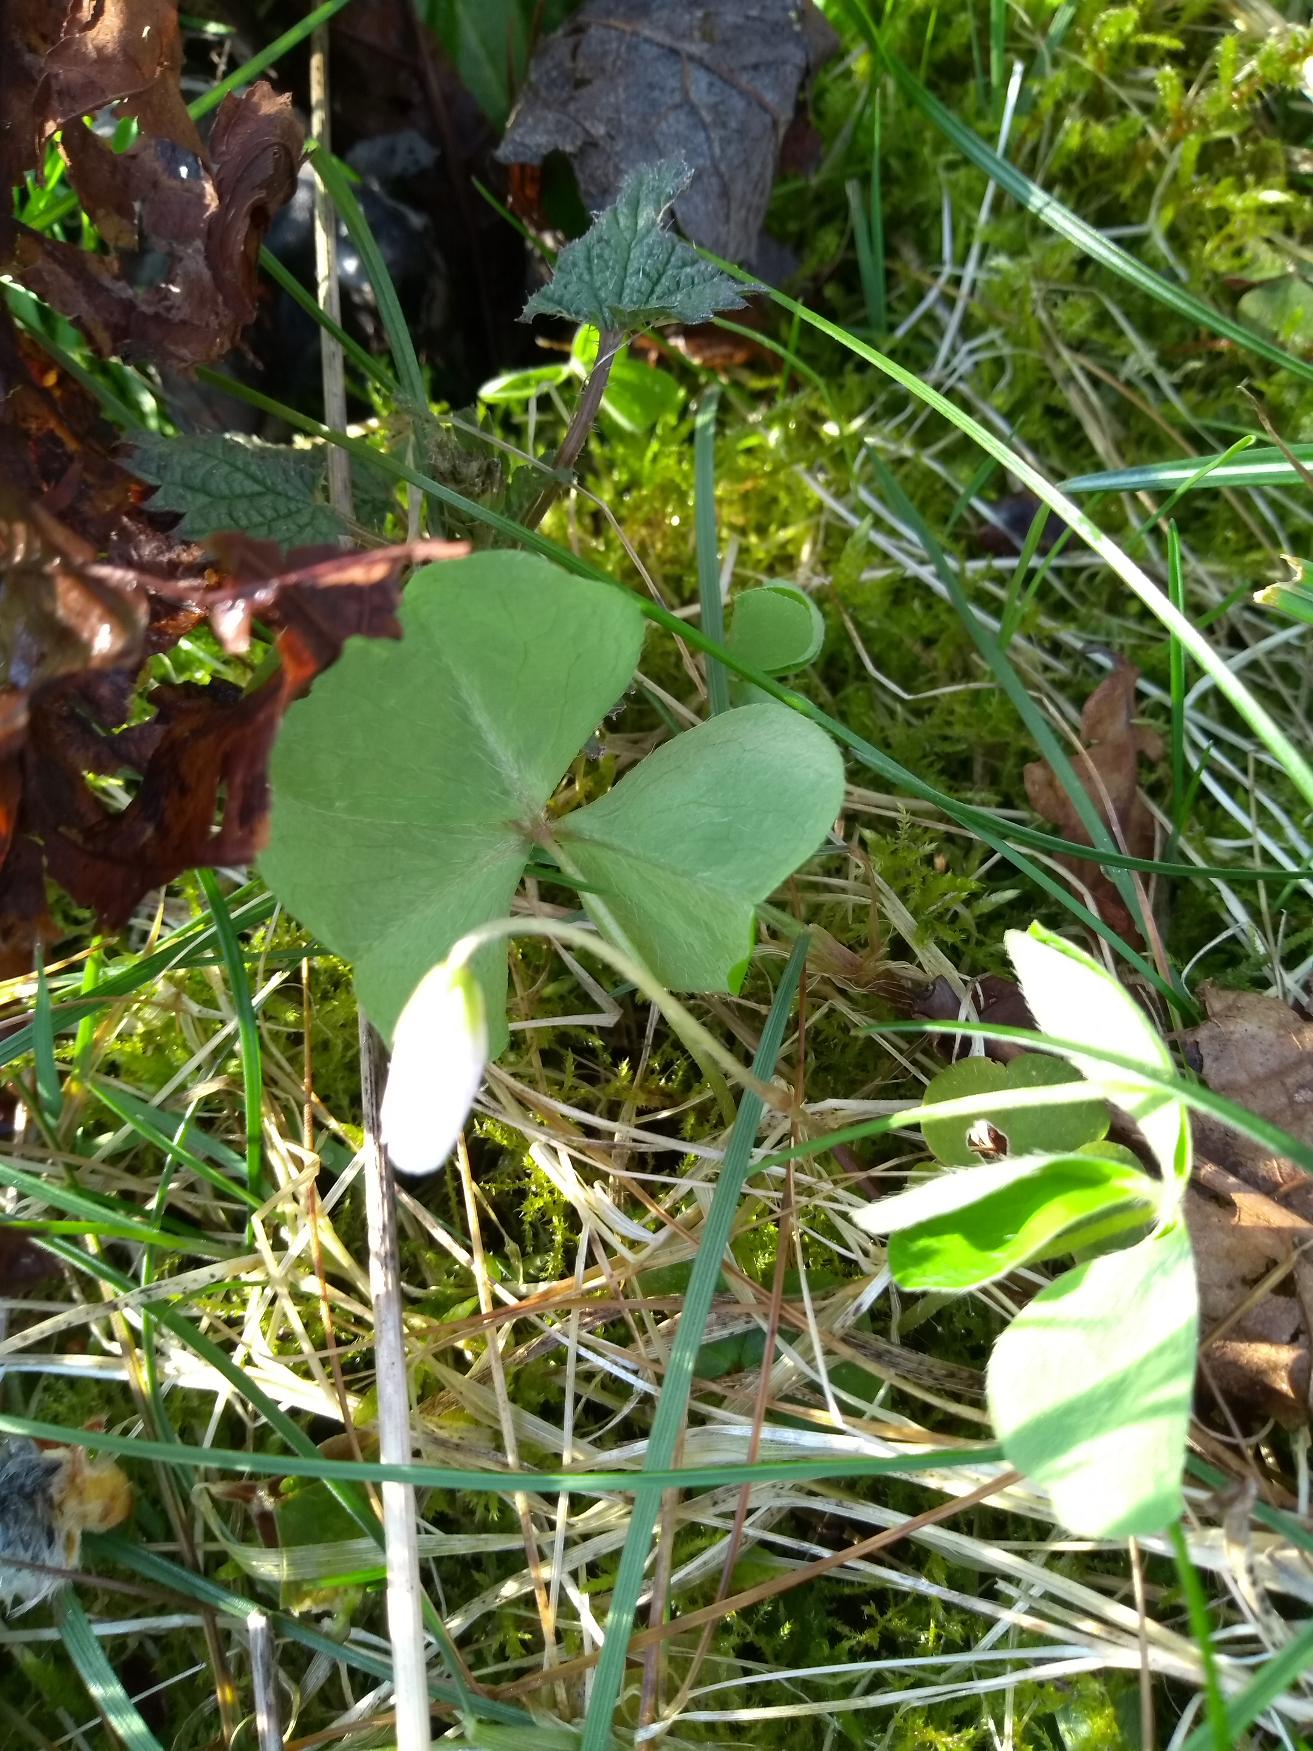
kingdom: Plantae
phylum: Tracheophyta
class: Magnoliopsida
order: Oxalidales
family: Oxalidaceae
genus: Oxalis
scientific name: Oxalis acetosella
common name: Skovsyre
